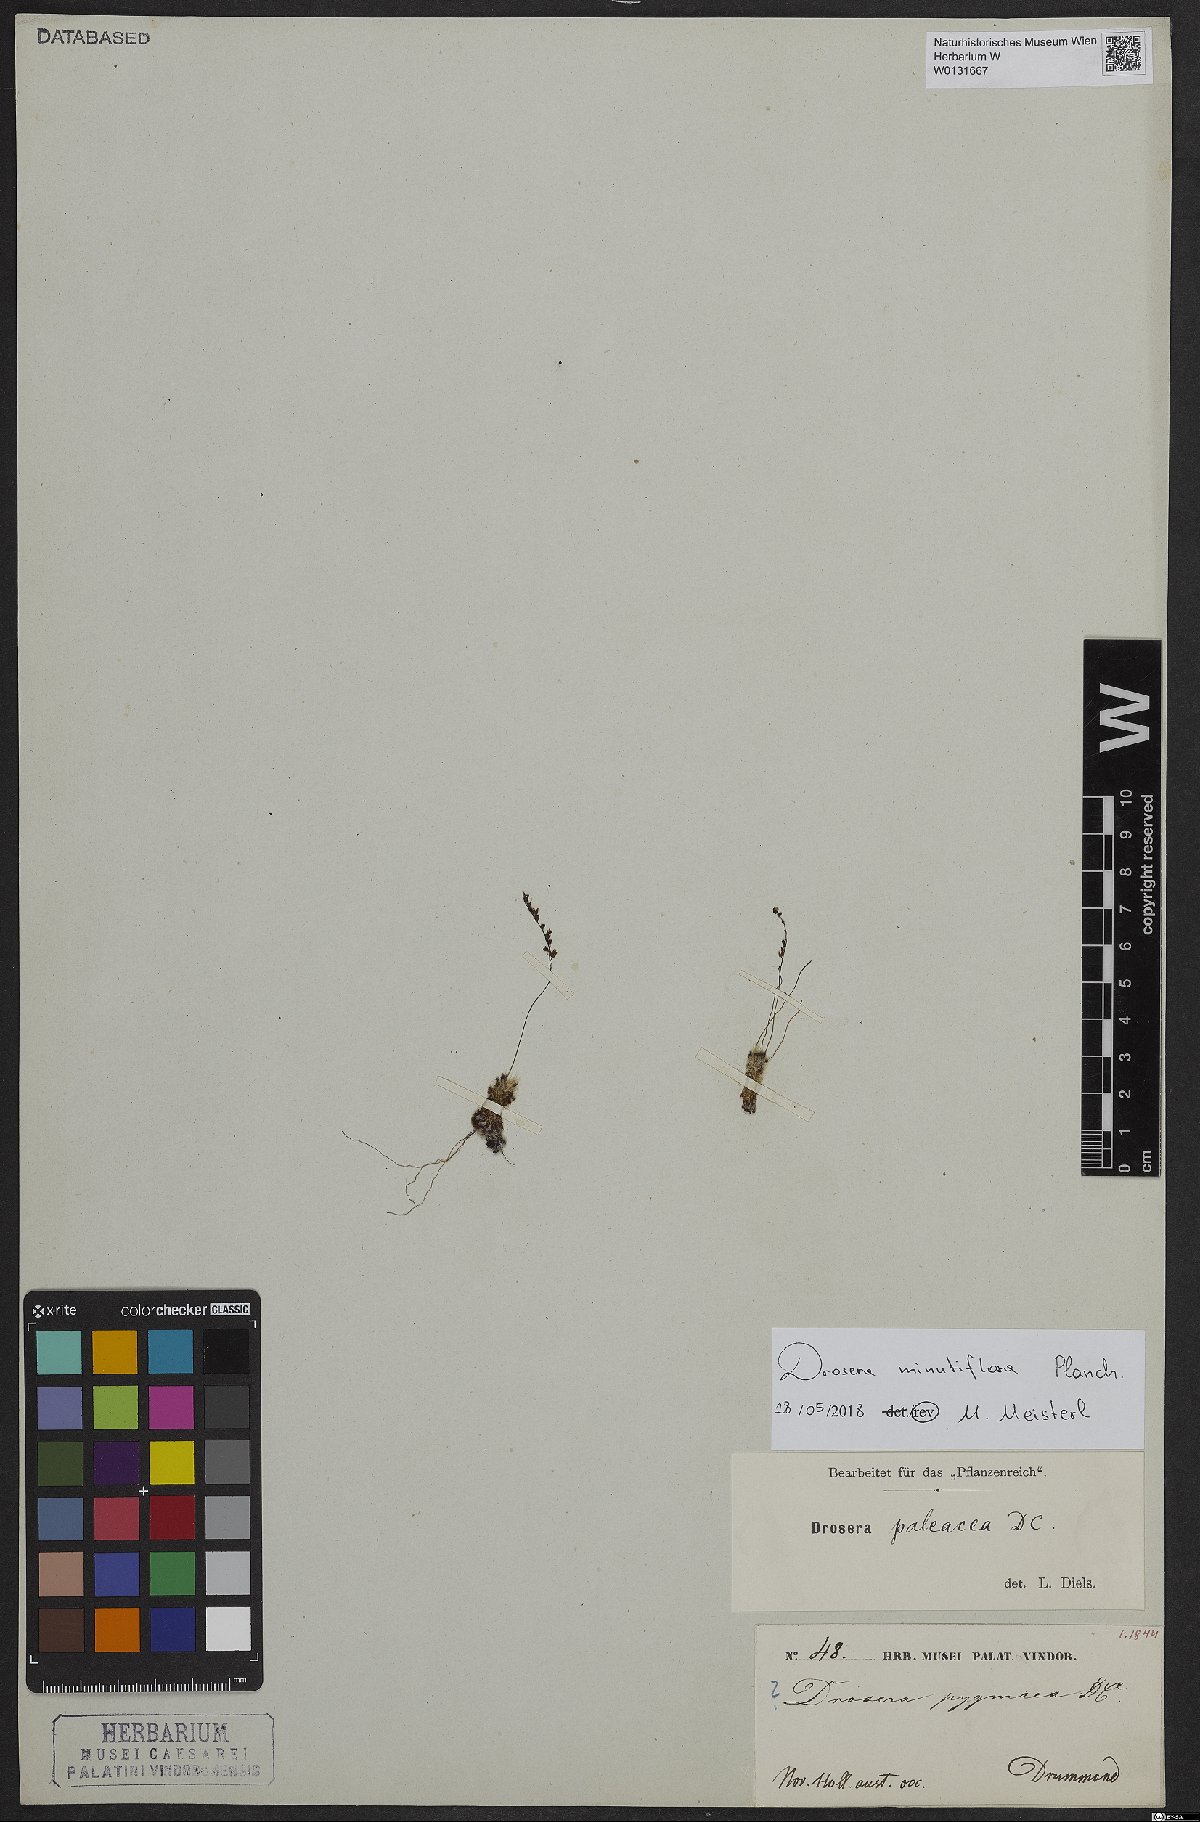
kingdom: Plantae
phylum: Tracheophyta
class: Magnoliopsida
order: Caryophyllales
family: Droseraceae
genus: Drosera
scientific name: Drosera paleacea
